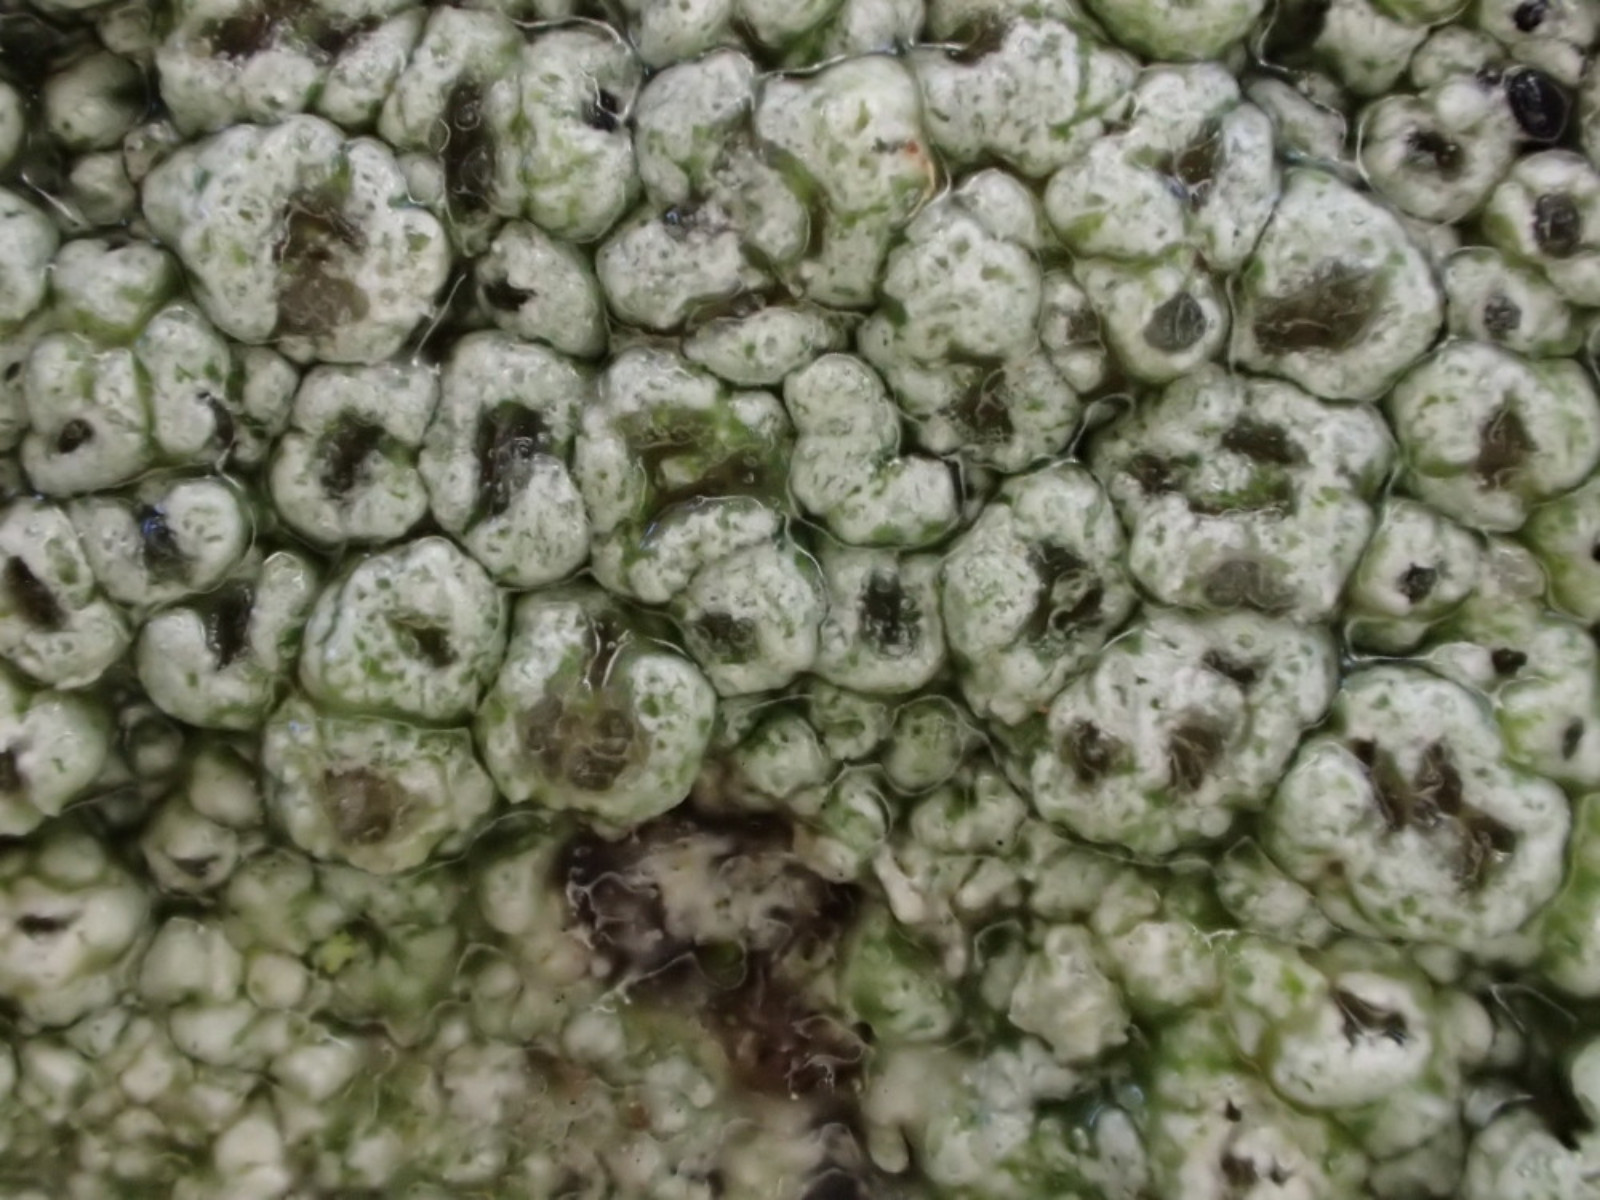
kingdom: Fungi
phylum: Ascomycota
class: Lecanoromycetes
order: Pertusariales
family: Pertusariaceae
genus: Pertusaria
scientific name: Pertusaria hymenea
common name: åben prikvortelav
